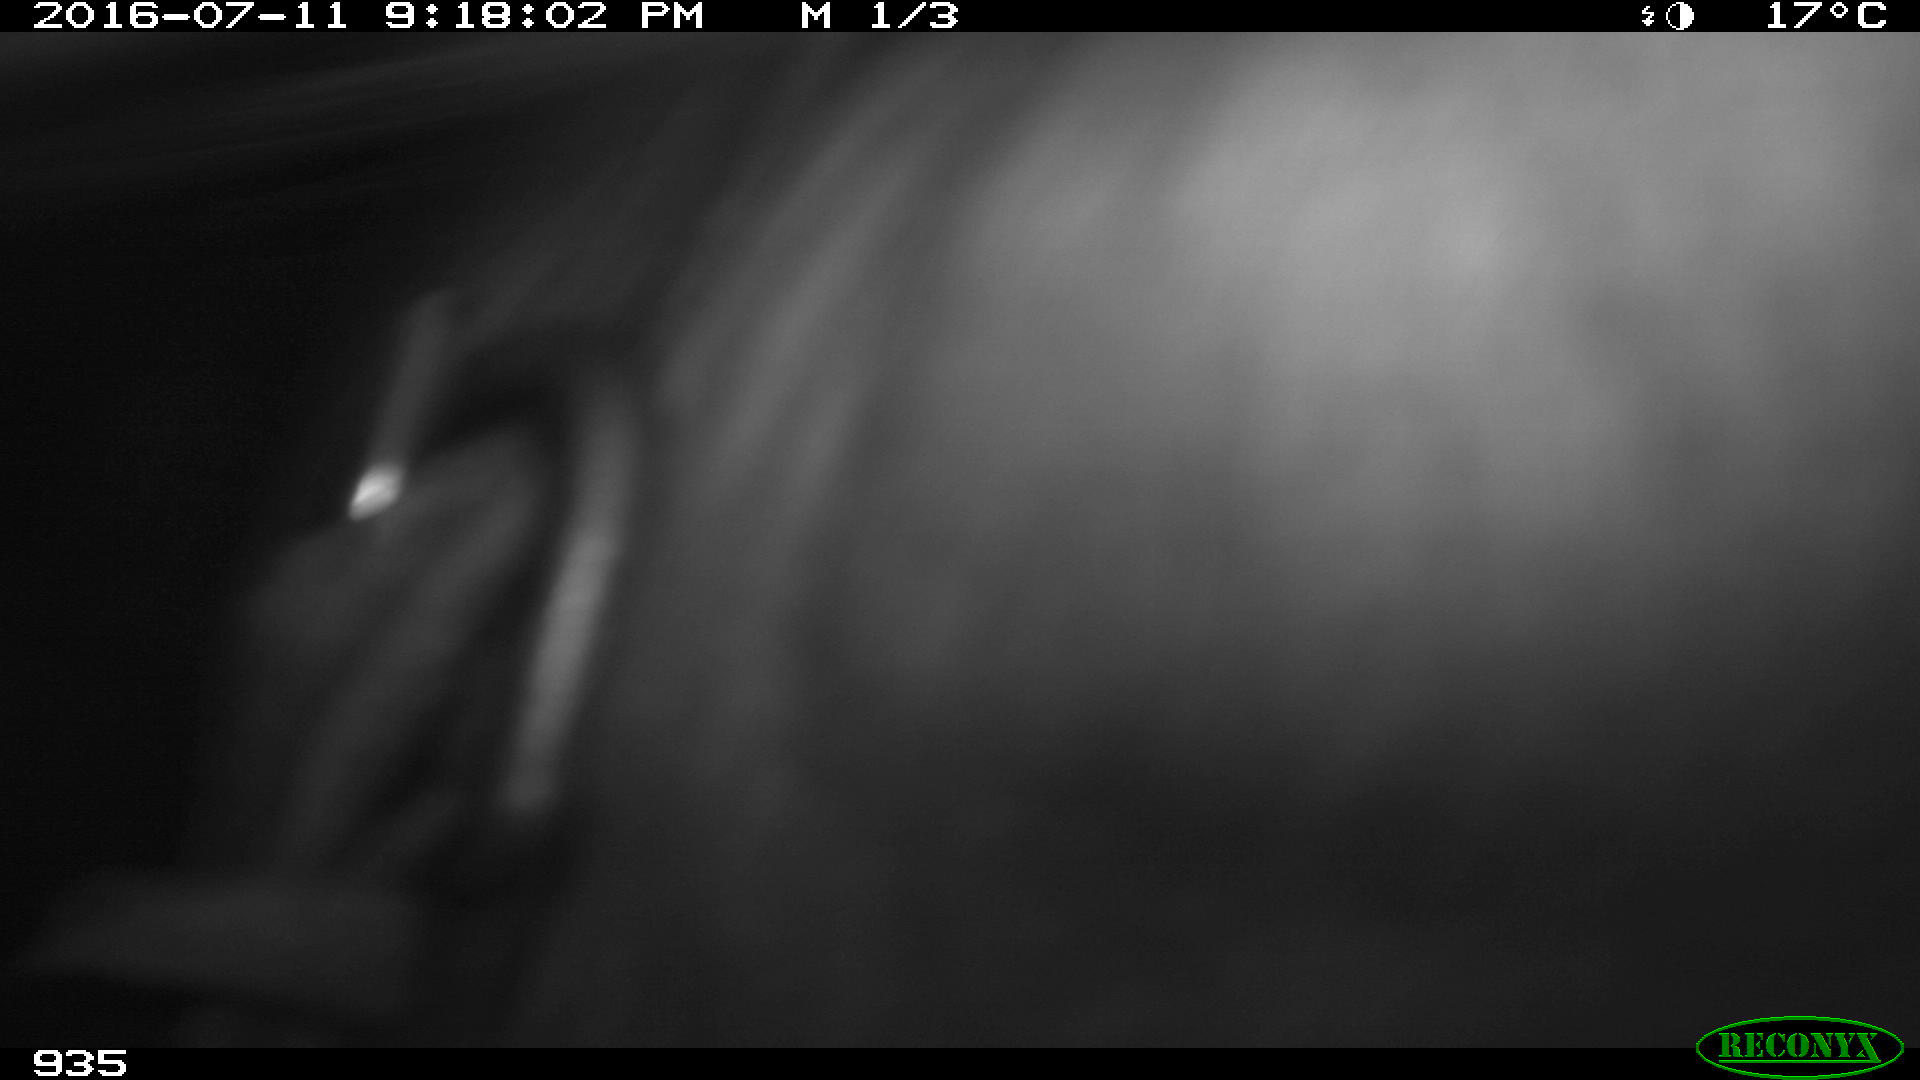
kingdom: Animalia
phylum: Chordata
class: Mammalia
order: Artiodactyla
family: Bovidae
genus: Bos
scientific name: Bos taurus
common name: Domesticated cattle
